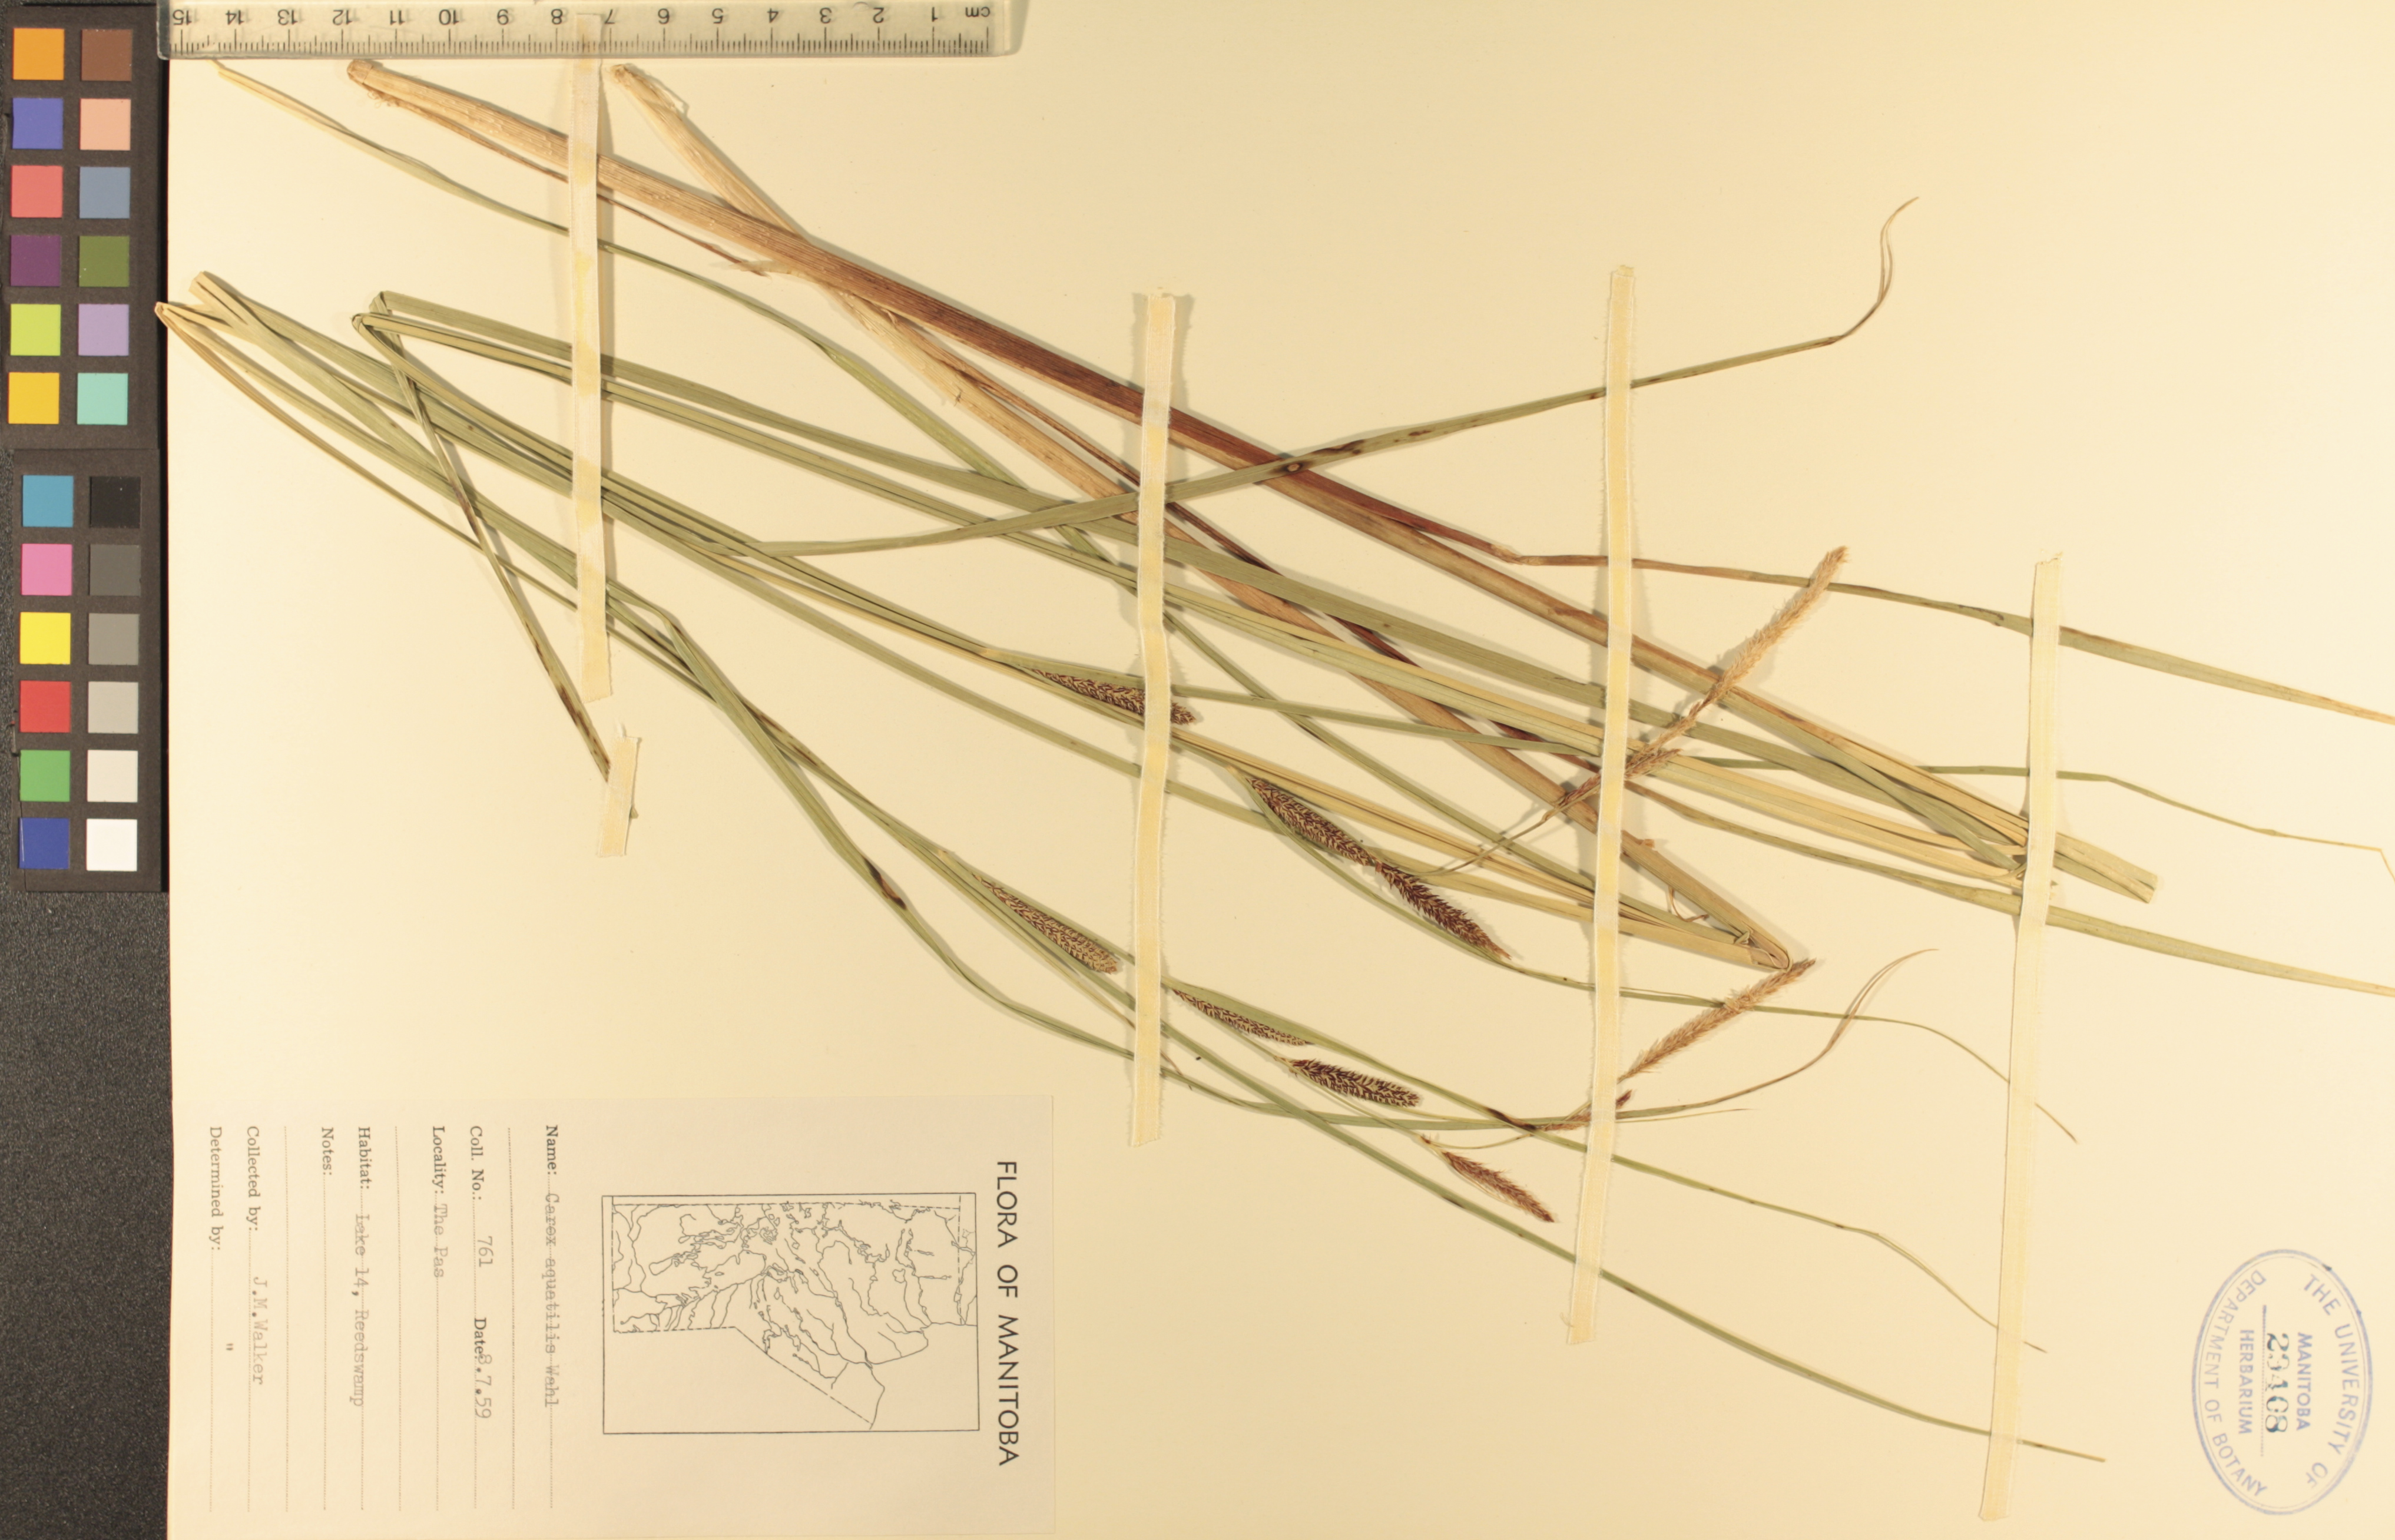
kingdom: Plantae
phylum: Tracheophyta
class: Liliopsida
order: Poales
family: Cyperaceae
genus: Carex
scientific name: Carex aquatilis
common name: Water sedge
